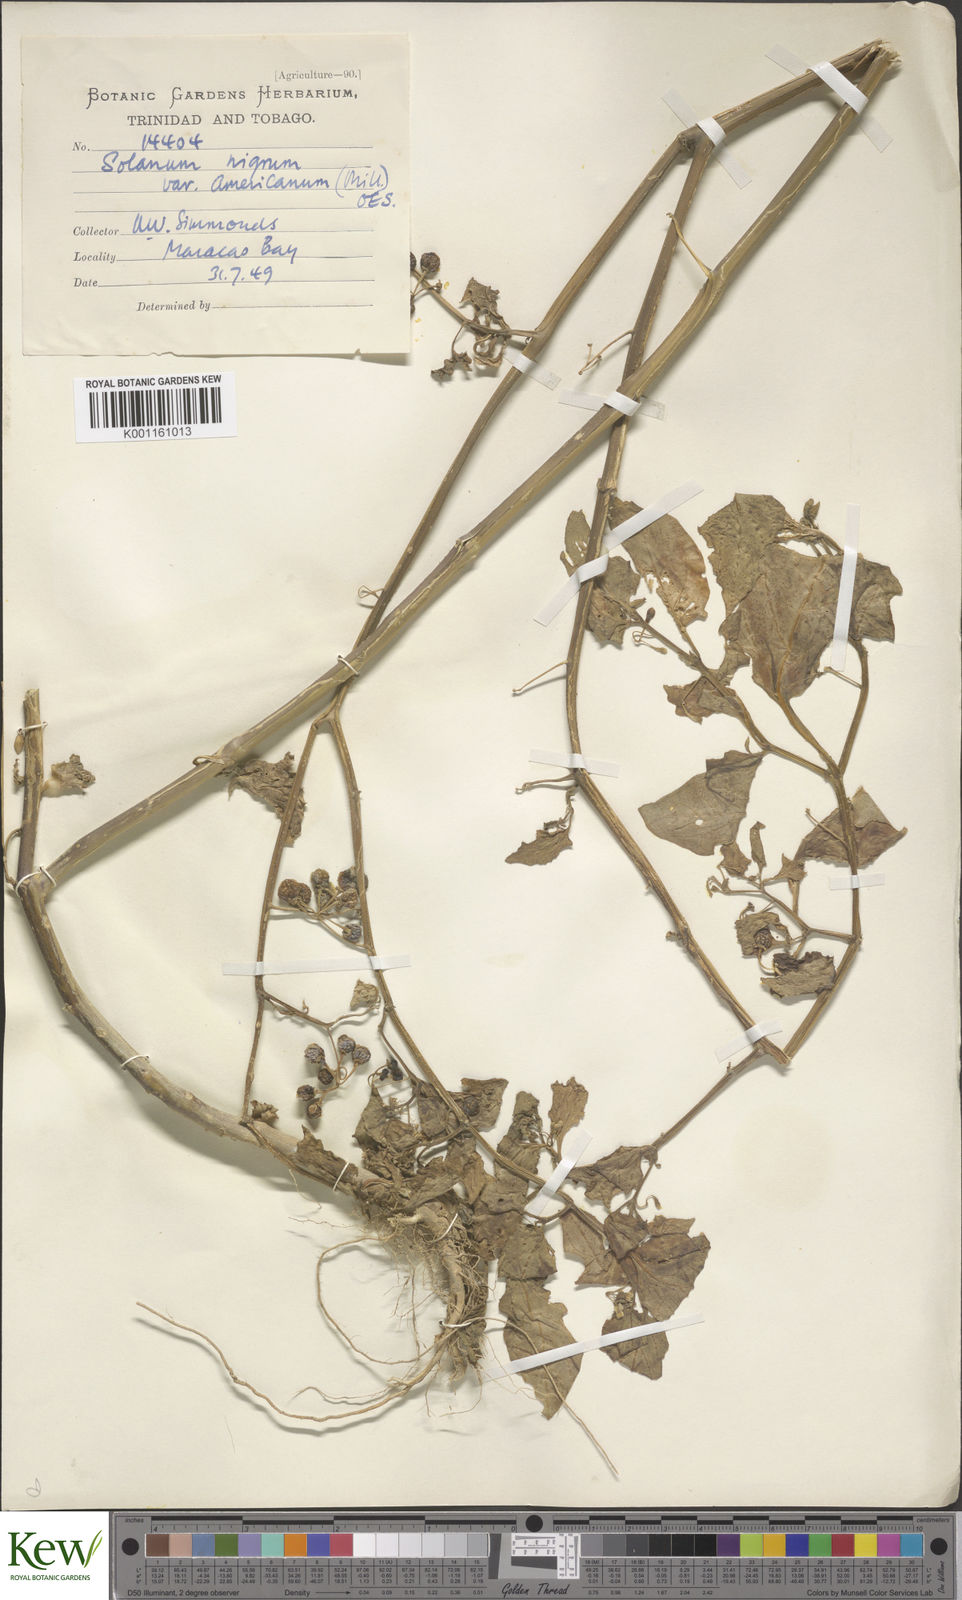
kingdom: Plantae
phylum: Tracheophyta
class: Magnoliopsida
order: Solanales
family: Solanaceae
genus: Solanum
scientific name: Solanum americanum
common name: American black nightshade
